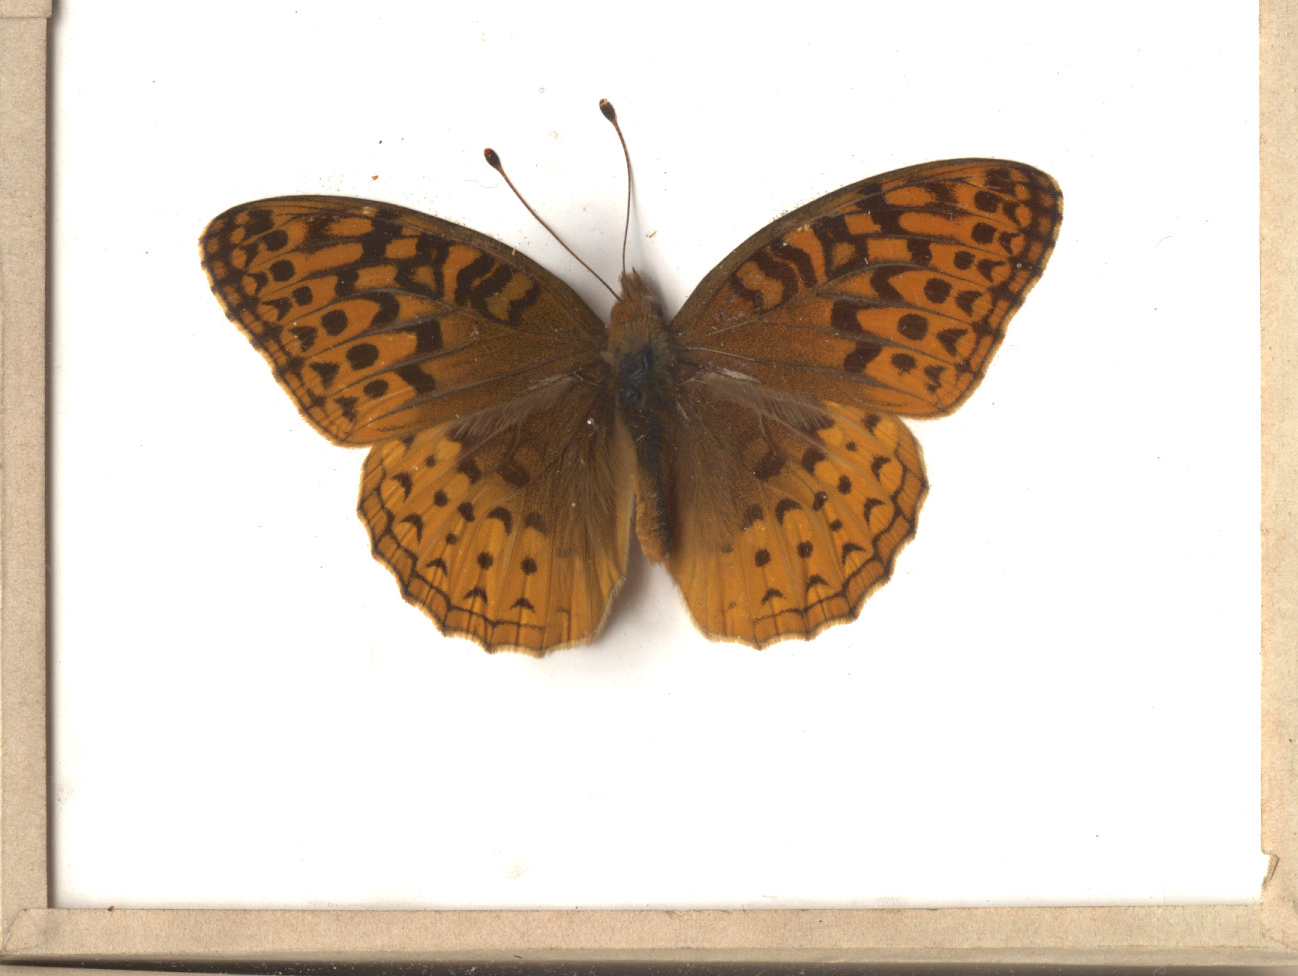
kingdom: Animalia
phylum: Arthropoda
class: Insecta
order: Lepidoptera
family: Nymphalidae
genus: Speyeria
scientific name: Speyeria cybele
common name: Great Spangled Fritillary
